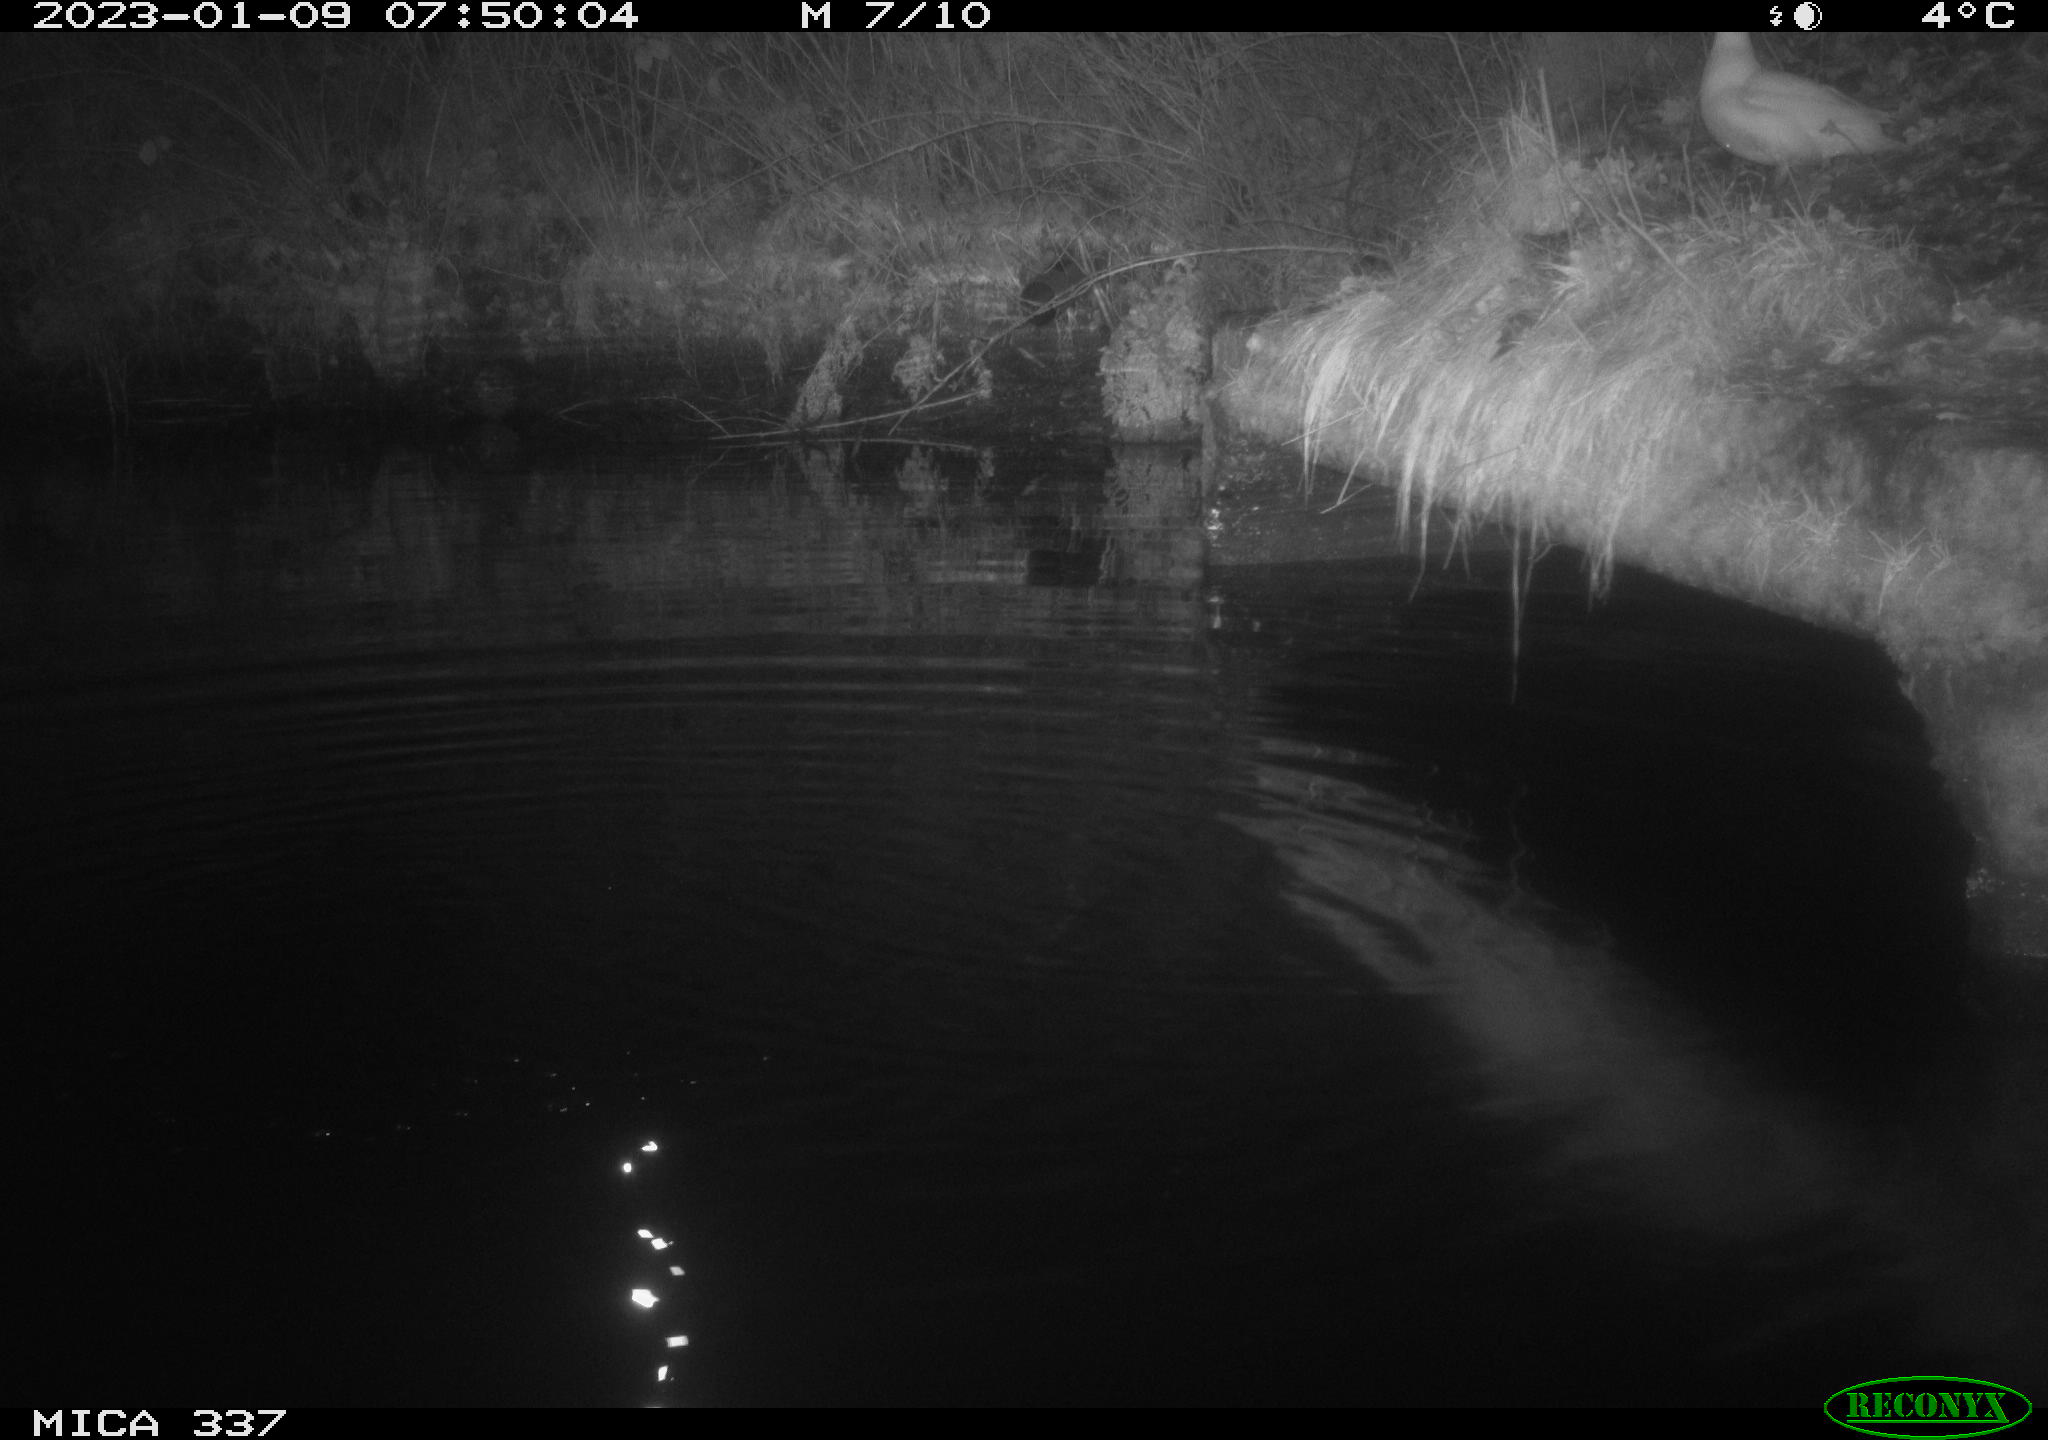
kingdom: Animalia
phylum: Chordata
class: Aves
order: Anseriformes
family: Anatidae
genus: Anas
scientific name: Anas
